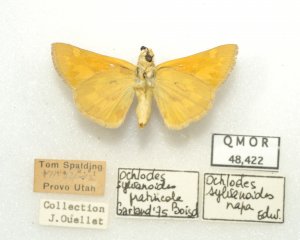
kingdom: Animalia
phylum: Arthropoda
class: Insecta
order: Lepidoptera
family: Hesperiidae
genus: Ochlodes
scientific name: Ochlodes sylvanoides
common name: Woodland Skipper
